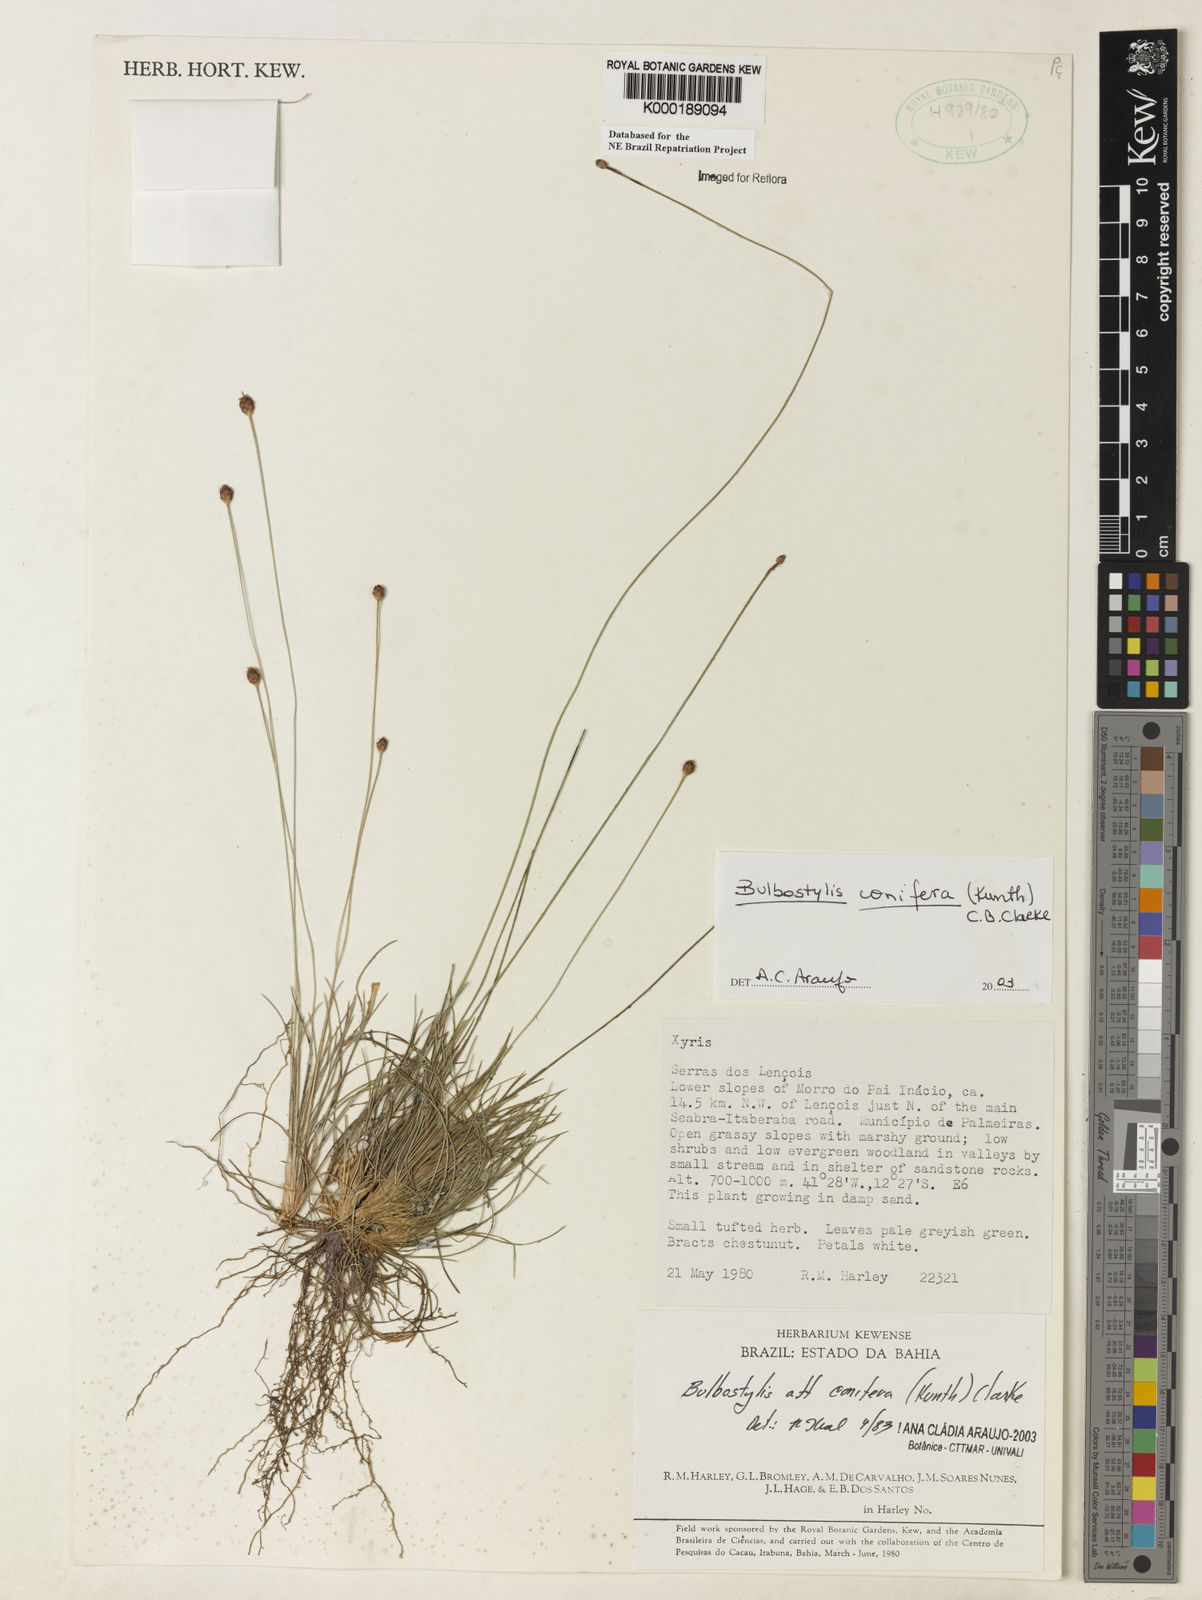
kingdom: Plantae
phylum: Tracheophyta
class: Liliopsida
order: Poales
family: Cyperaceae
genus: Bulbostylis
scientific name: Bulbostylis conifera
